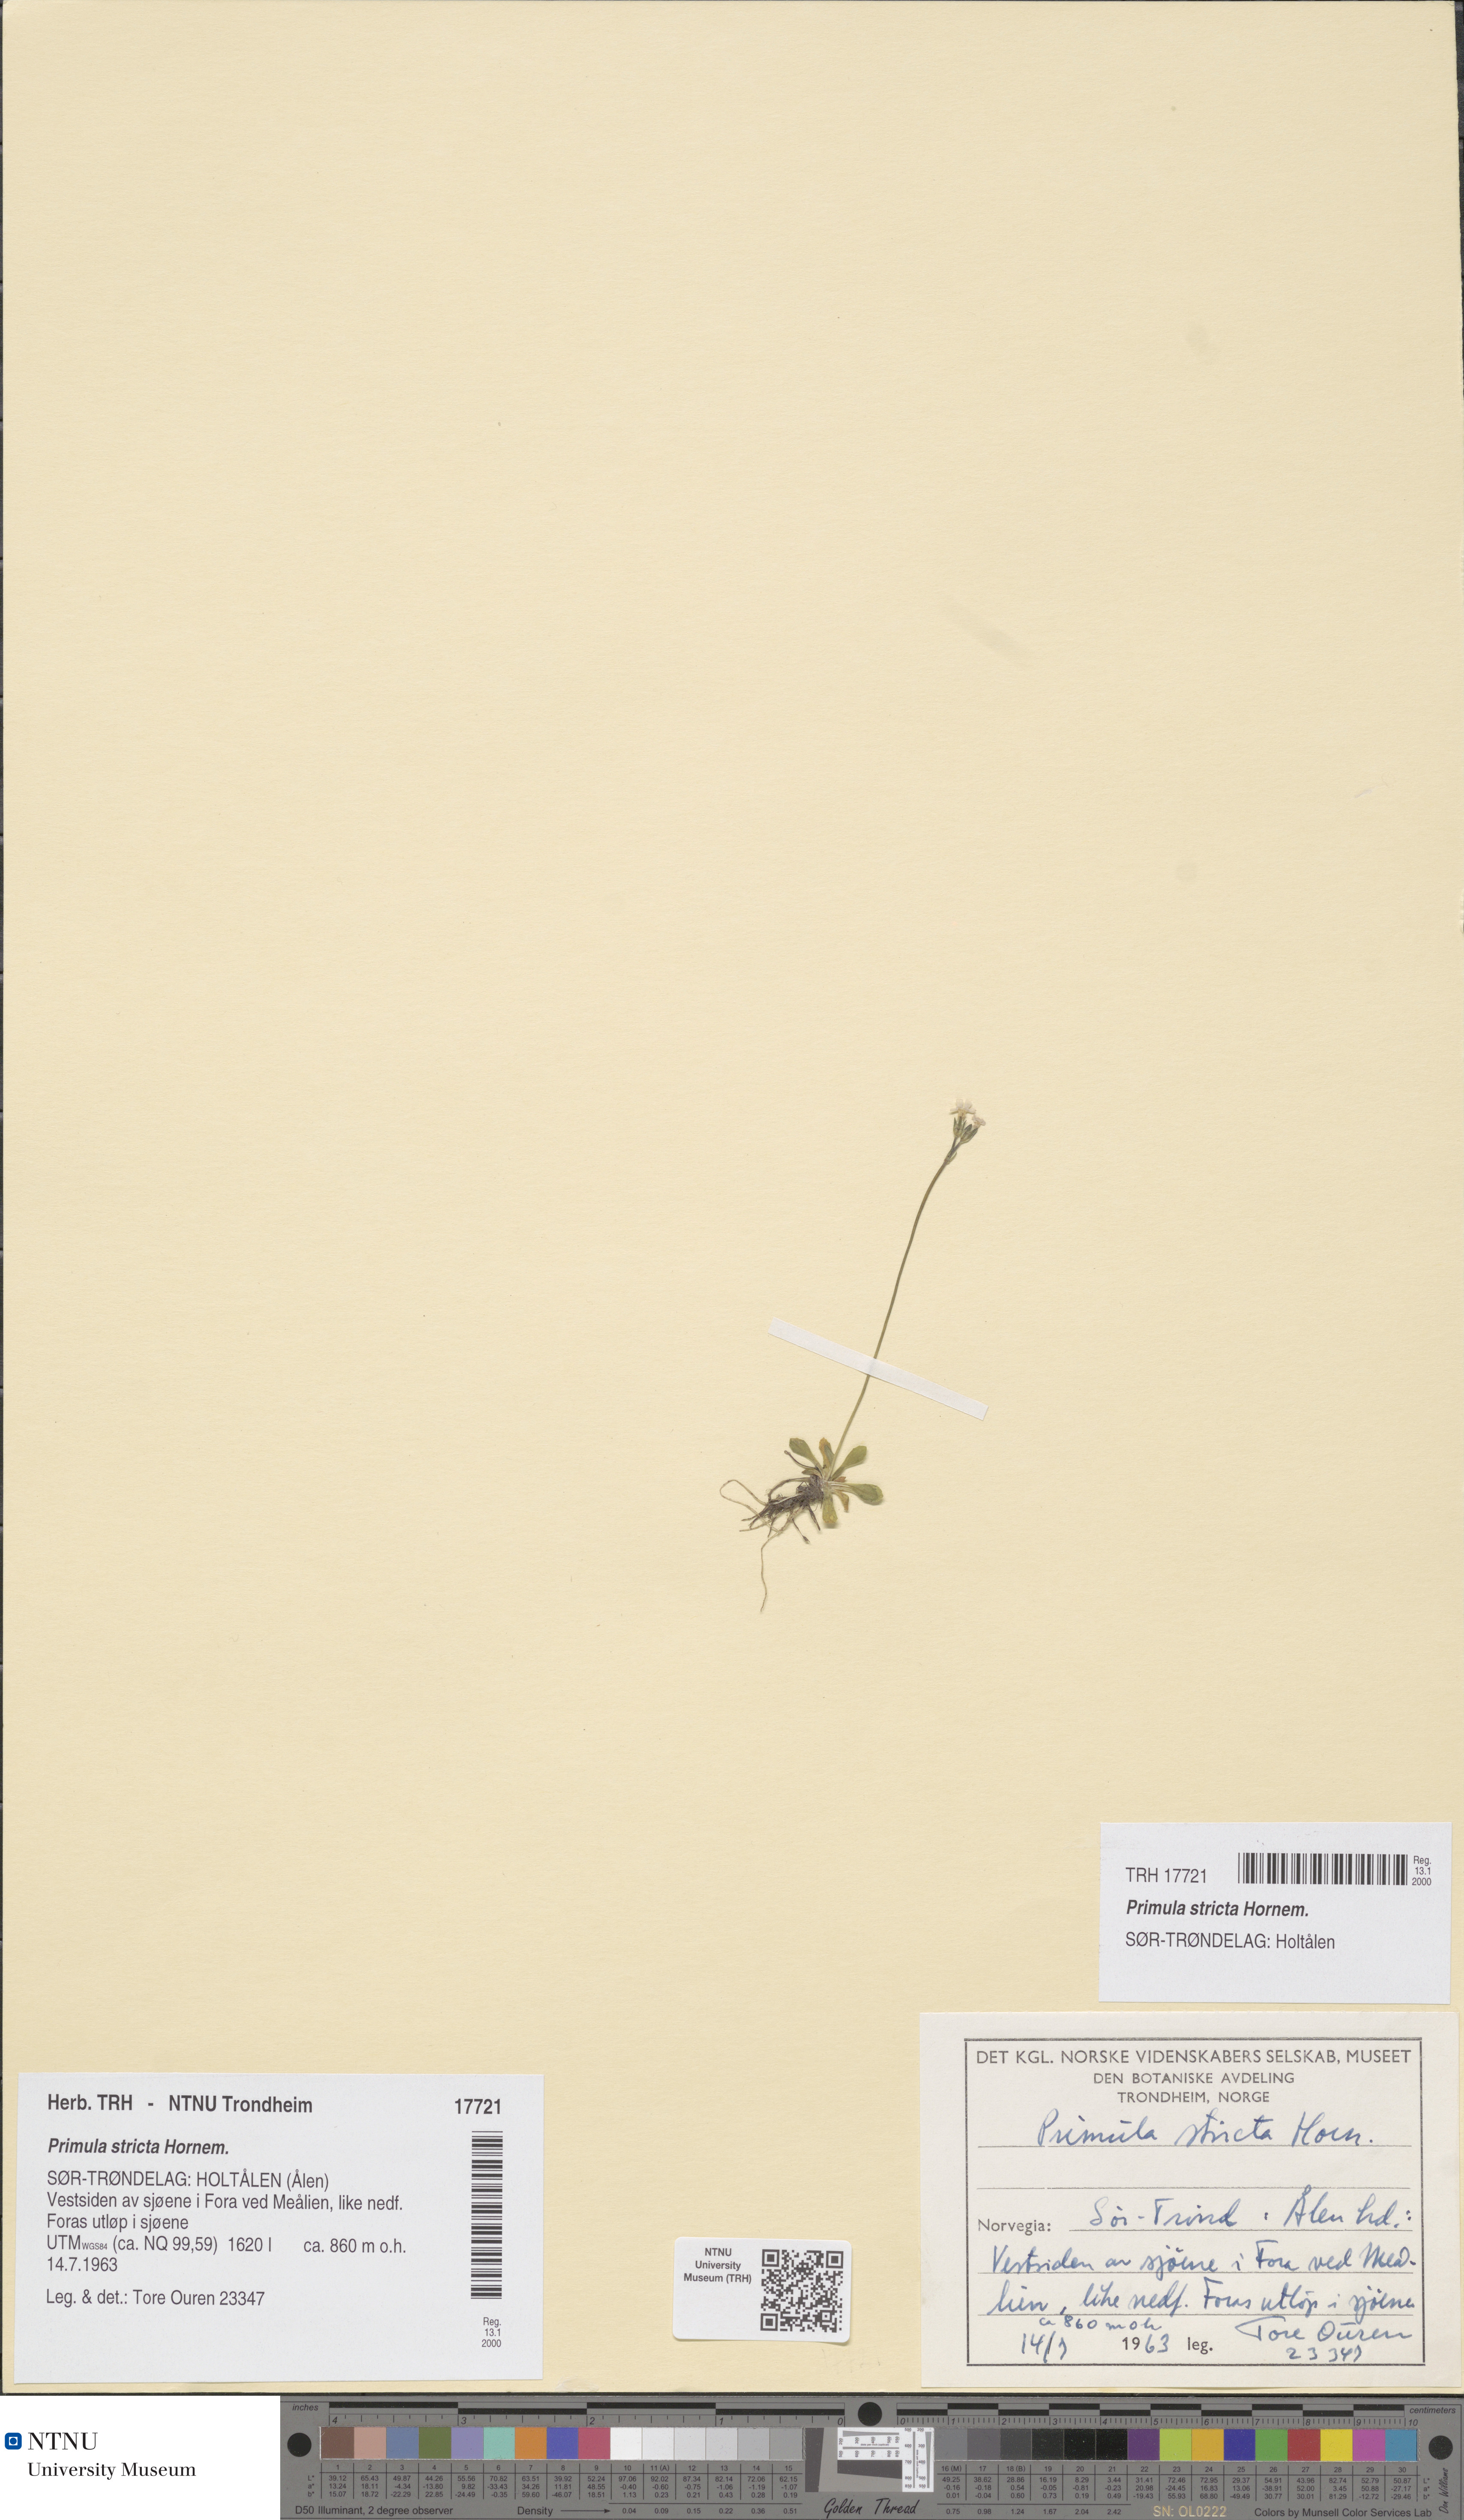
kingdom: Plantae
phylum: Tracheophyta
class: Magnoliopsida
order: Ericales
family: Primulaceae
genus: Primula
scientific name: Primula stricta
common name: Coastal primrose
